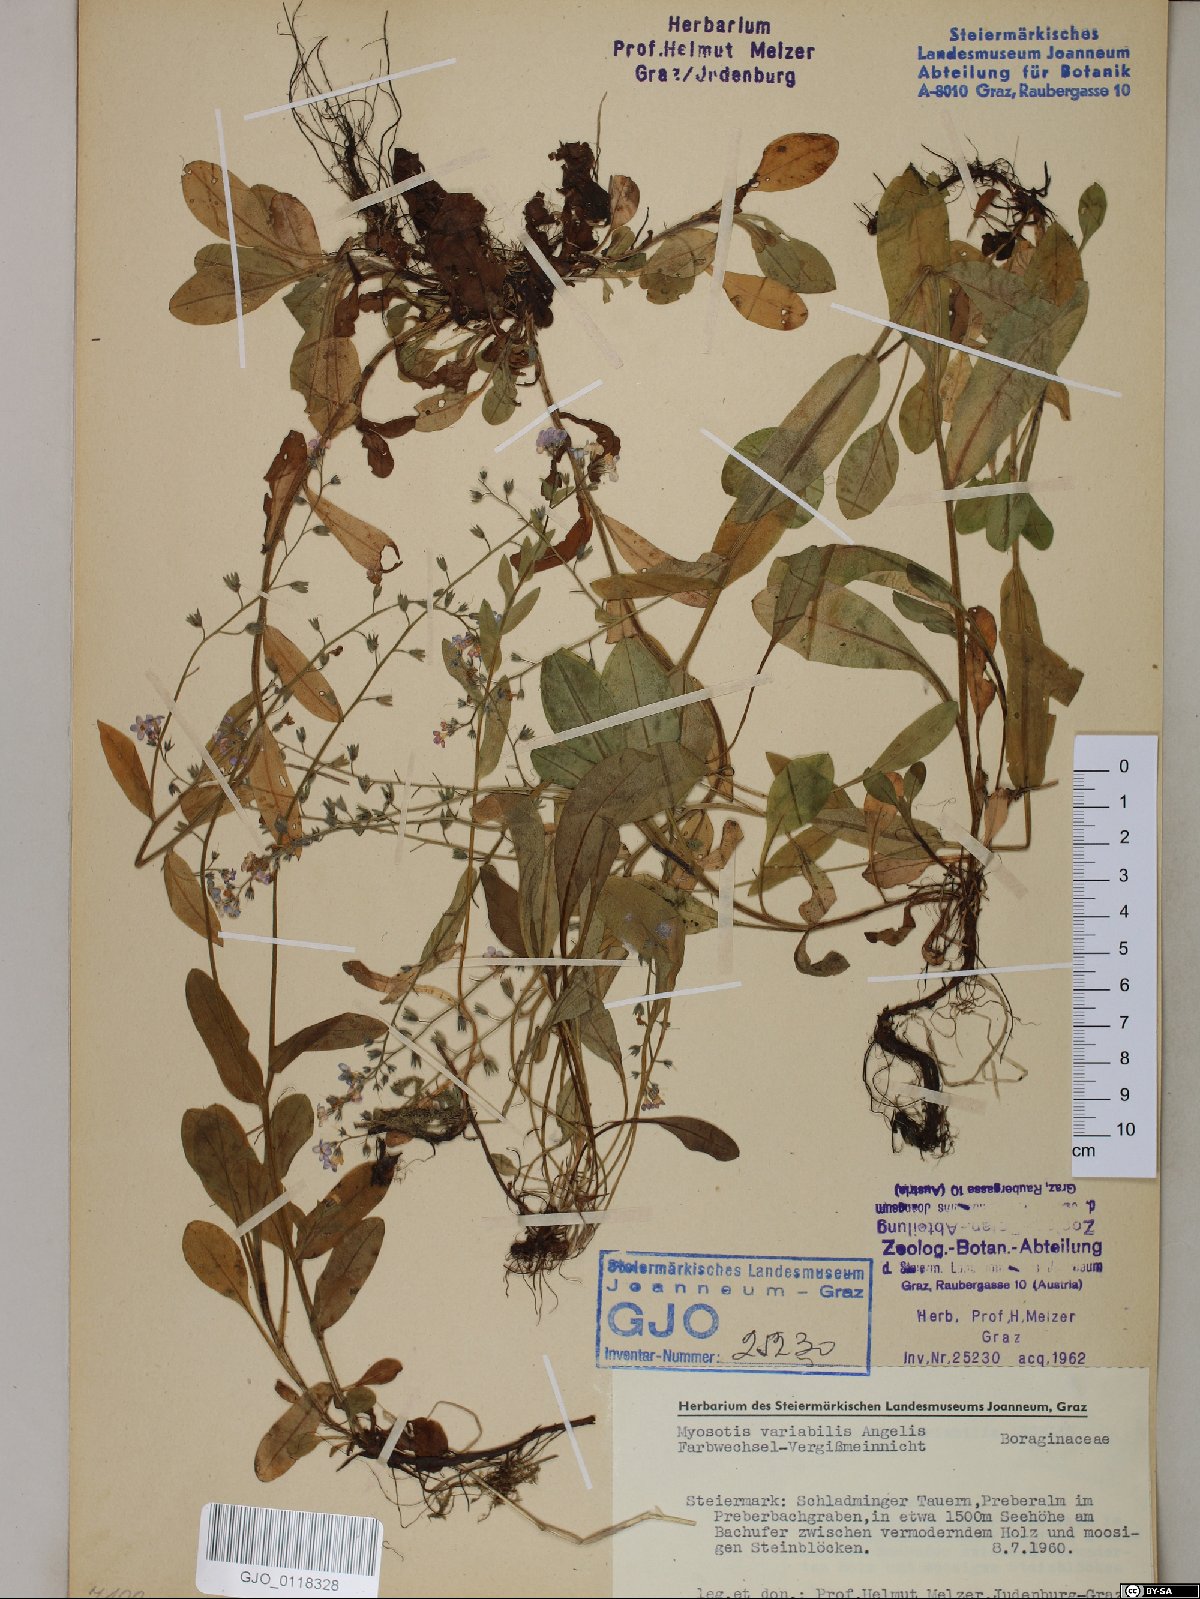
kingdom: Plantae
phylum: Tracheophyta
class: Magnoliopsida
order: Boraginales
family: Boraginaceae
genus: Myosotis
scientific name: Myosotis decumbens
